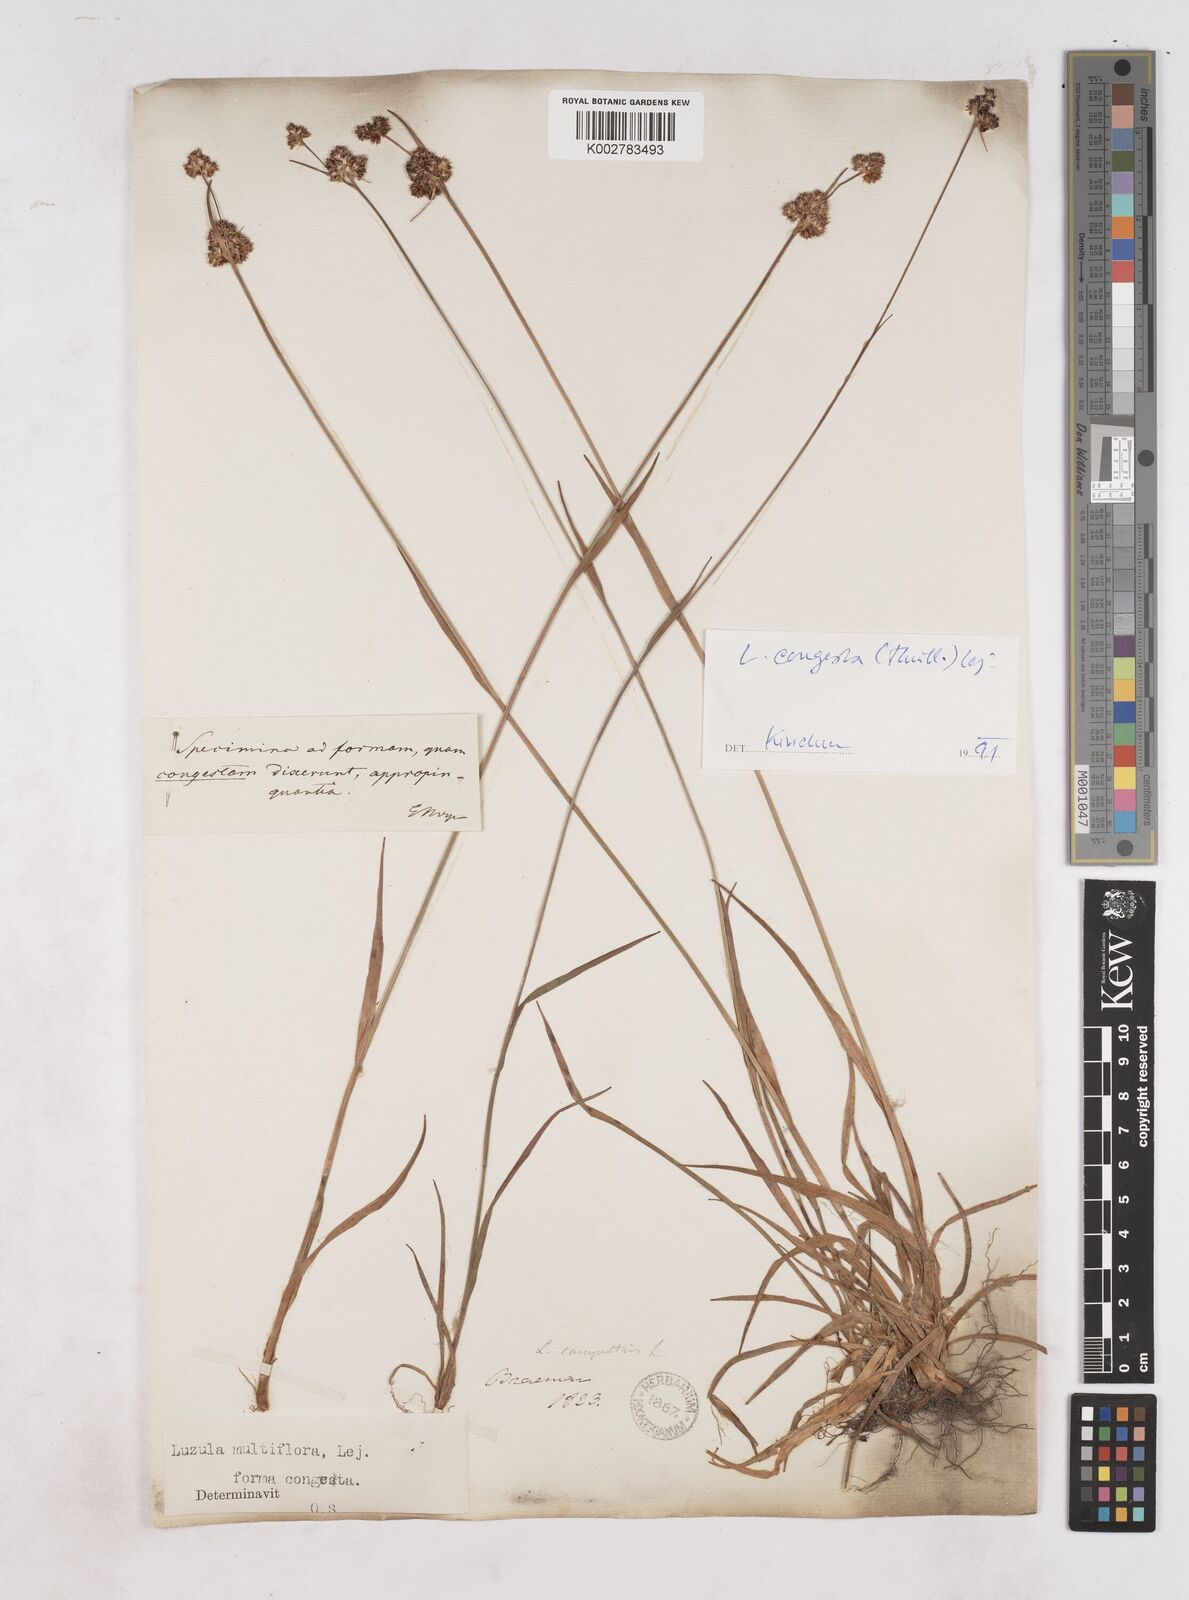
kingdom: Plantae
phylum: Tracheophyta
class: Liliopsida
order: Poales
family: Juncaceae
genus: Luzula
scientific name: Luzula multiflora
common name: Heath wood-rush
